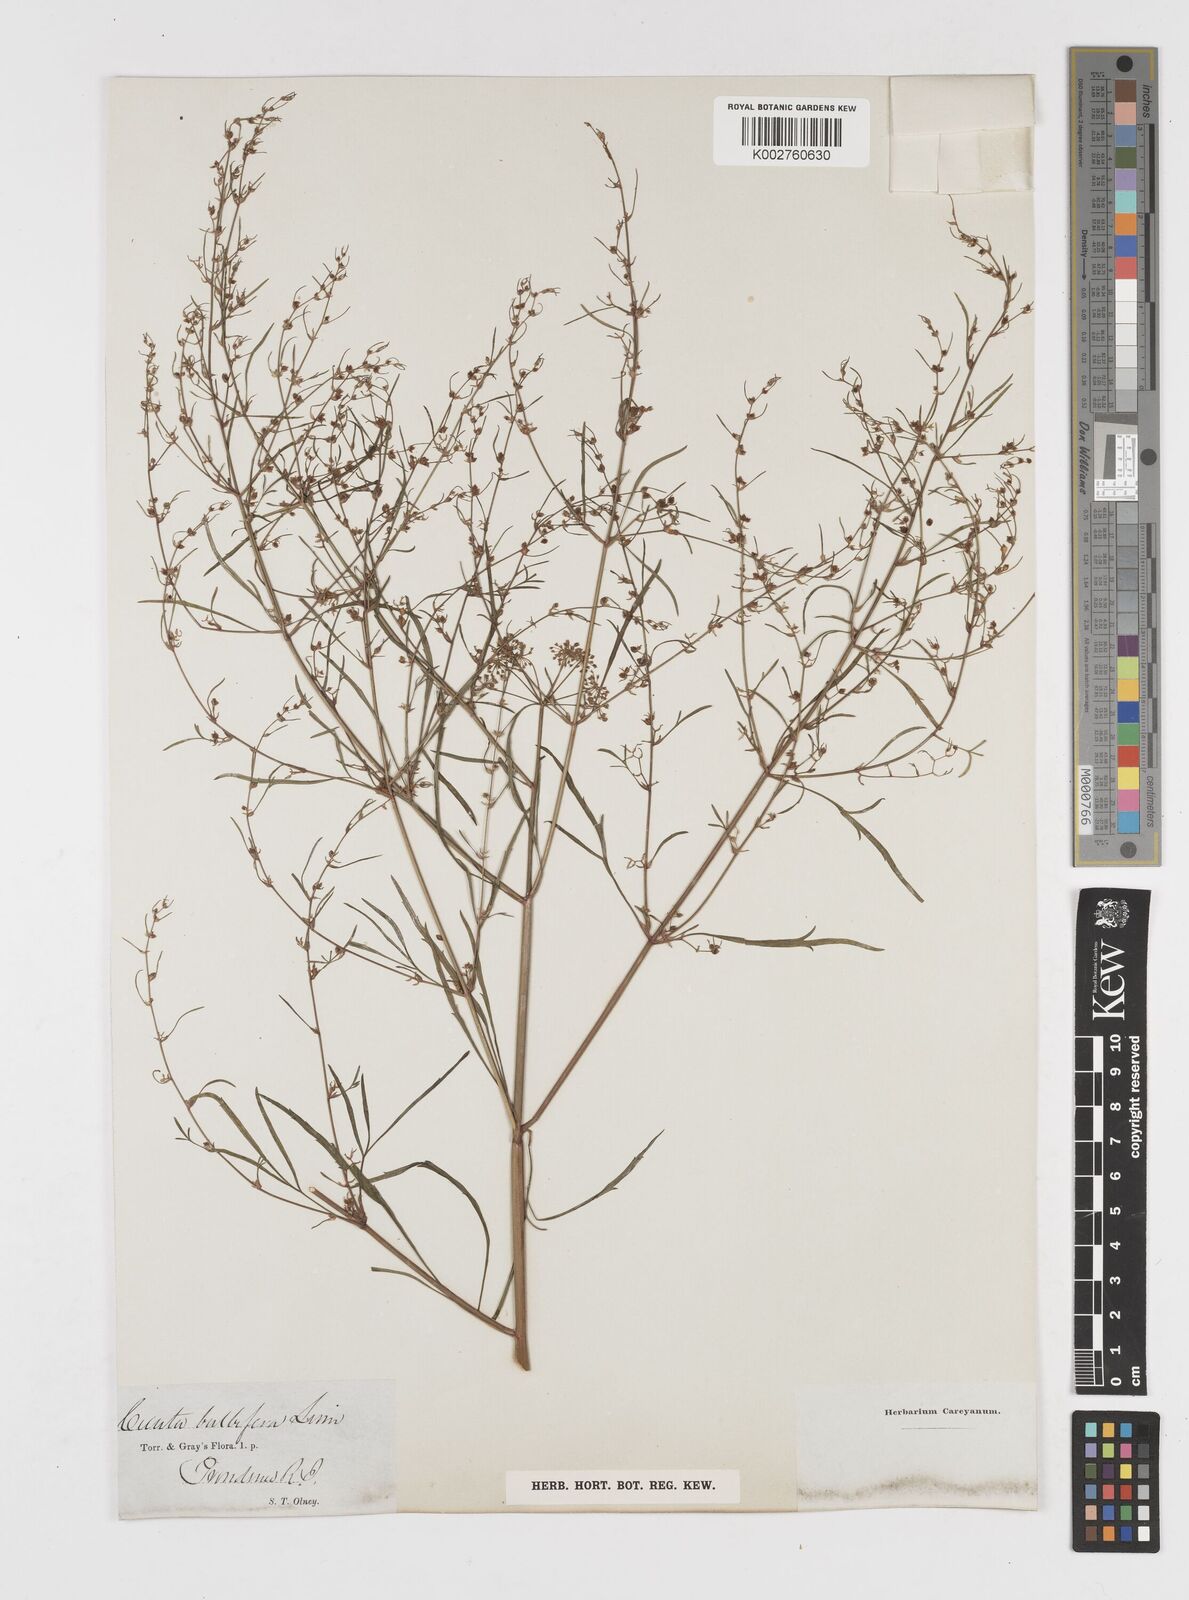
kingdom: Plantae
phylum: Tracheophyta
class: Magnoliopsida
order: Apiales
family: Apiaceae
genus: Cicuta
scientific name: Cicuta bulbifera
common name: Bulb-bearing water-hemlock
